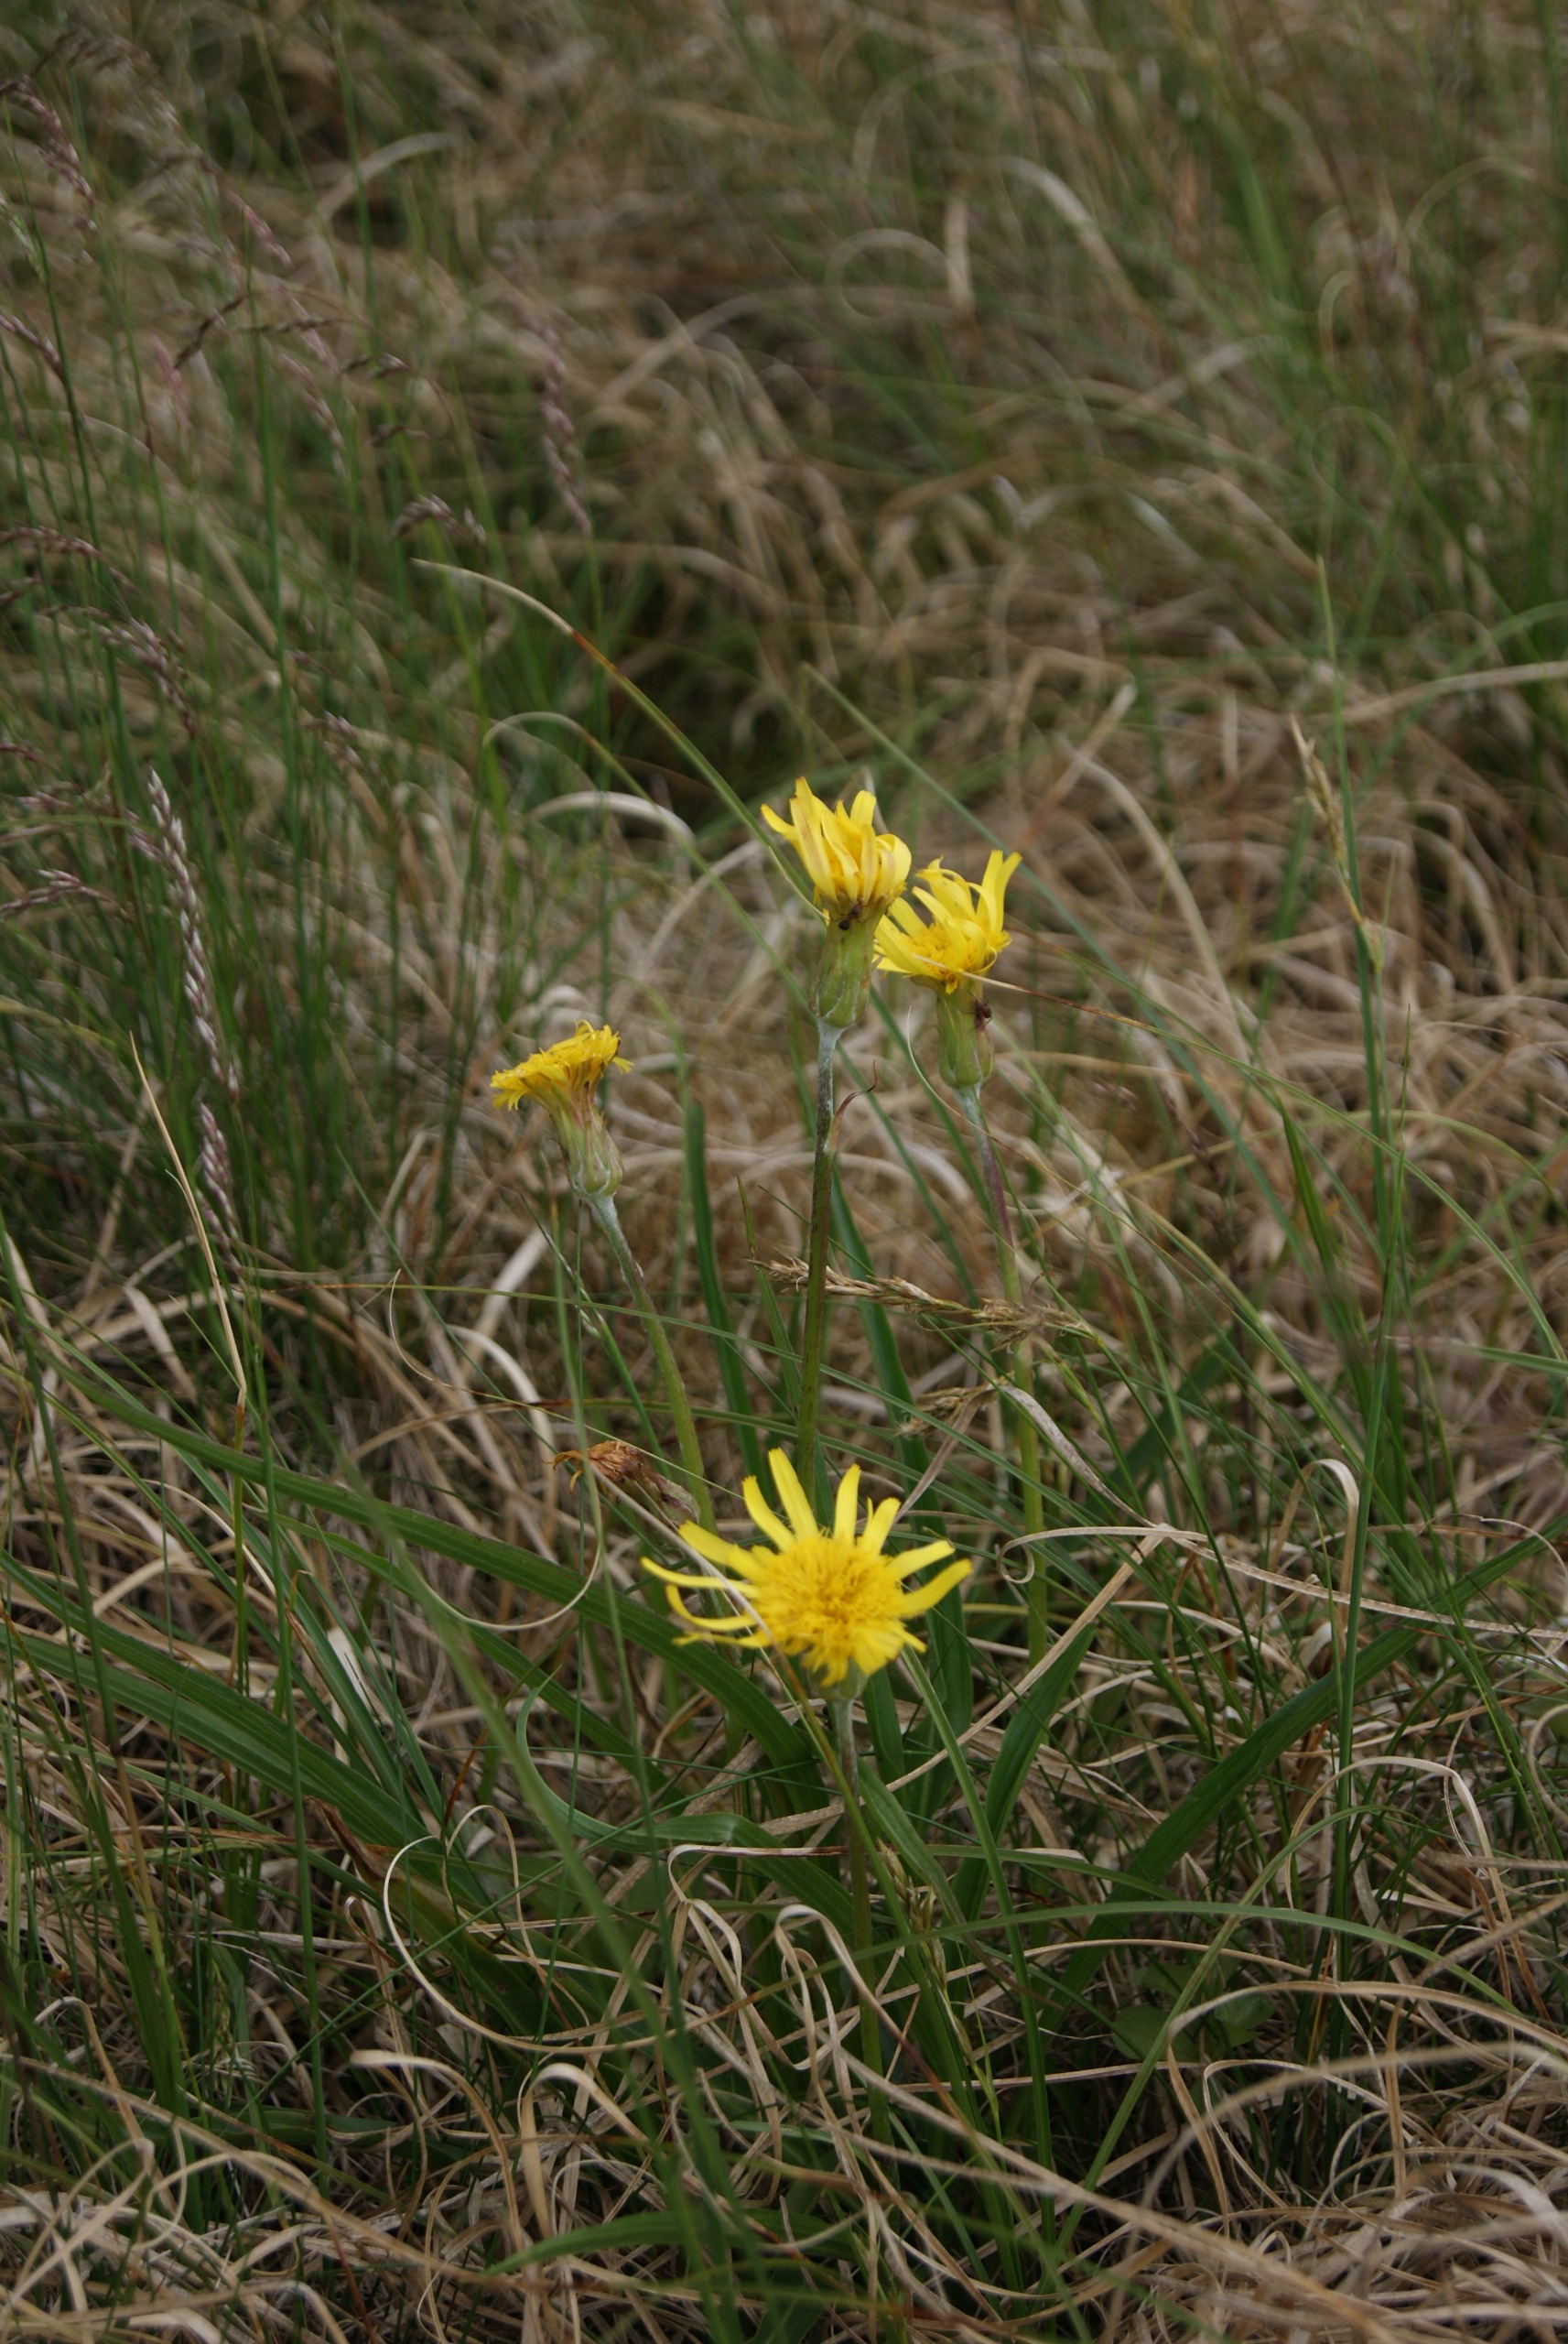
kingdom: Plantae
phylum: Tracheophyta
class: Magnoliopsida
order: Asterales
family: Asteraceae
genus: Scorzonera
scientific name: Scorzonera humilis
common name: Lav skorsoner
